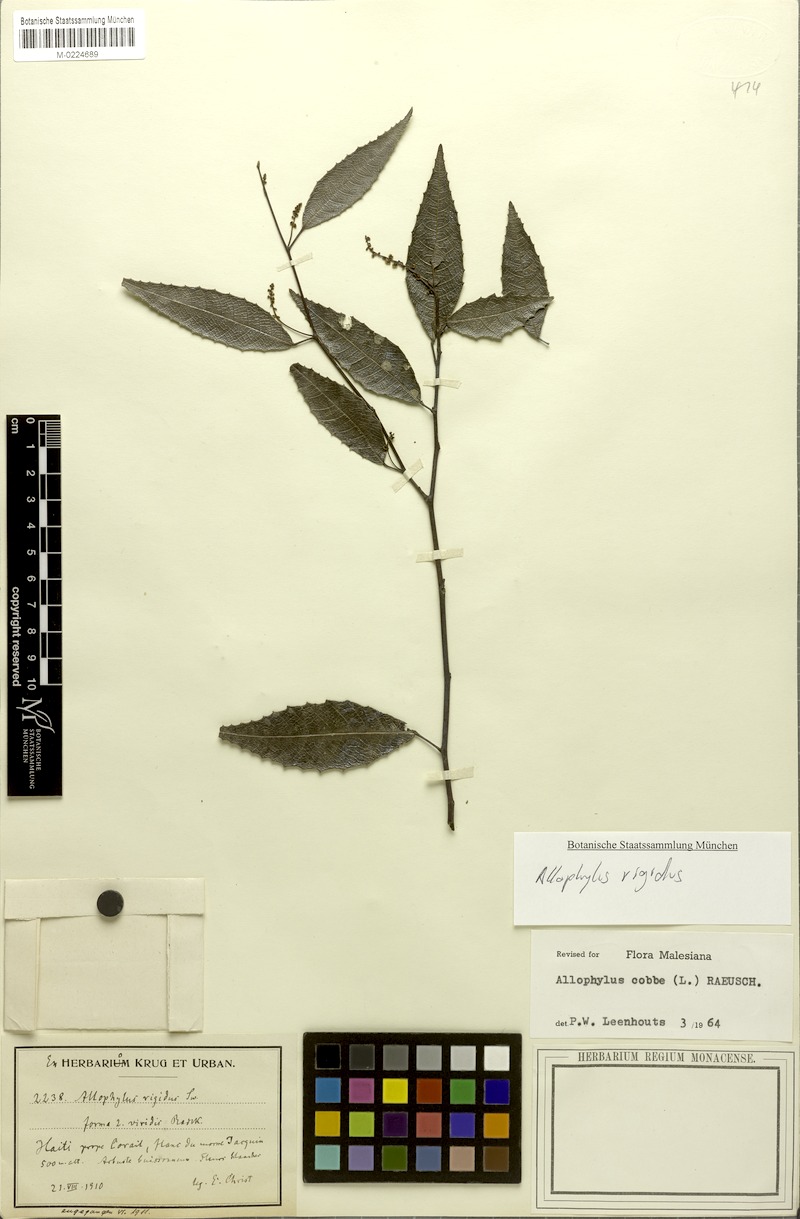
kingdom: Plantae
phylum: Tracheophyta
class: Magnoliopsida
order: Sapindales
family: Sapindaceae
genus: Allophylus
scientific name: Allophylus rigidus
